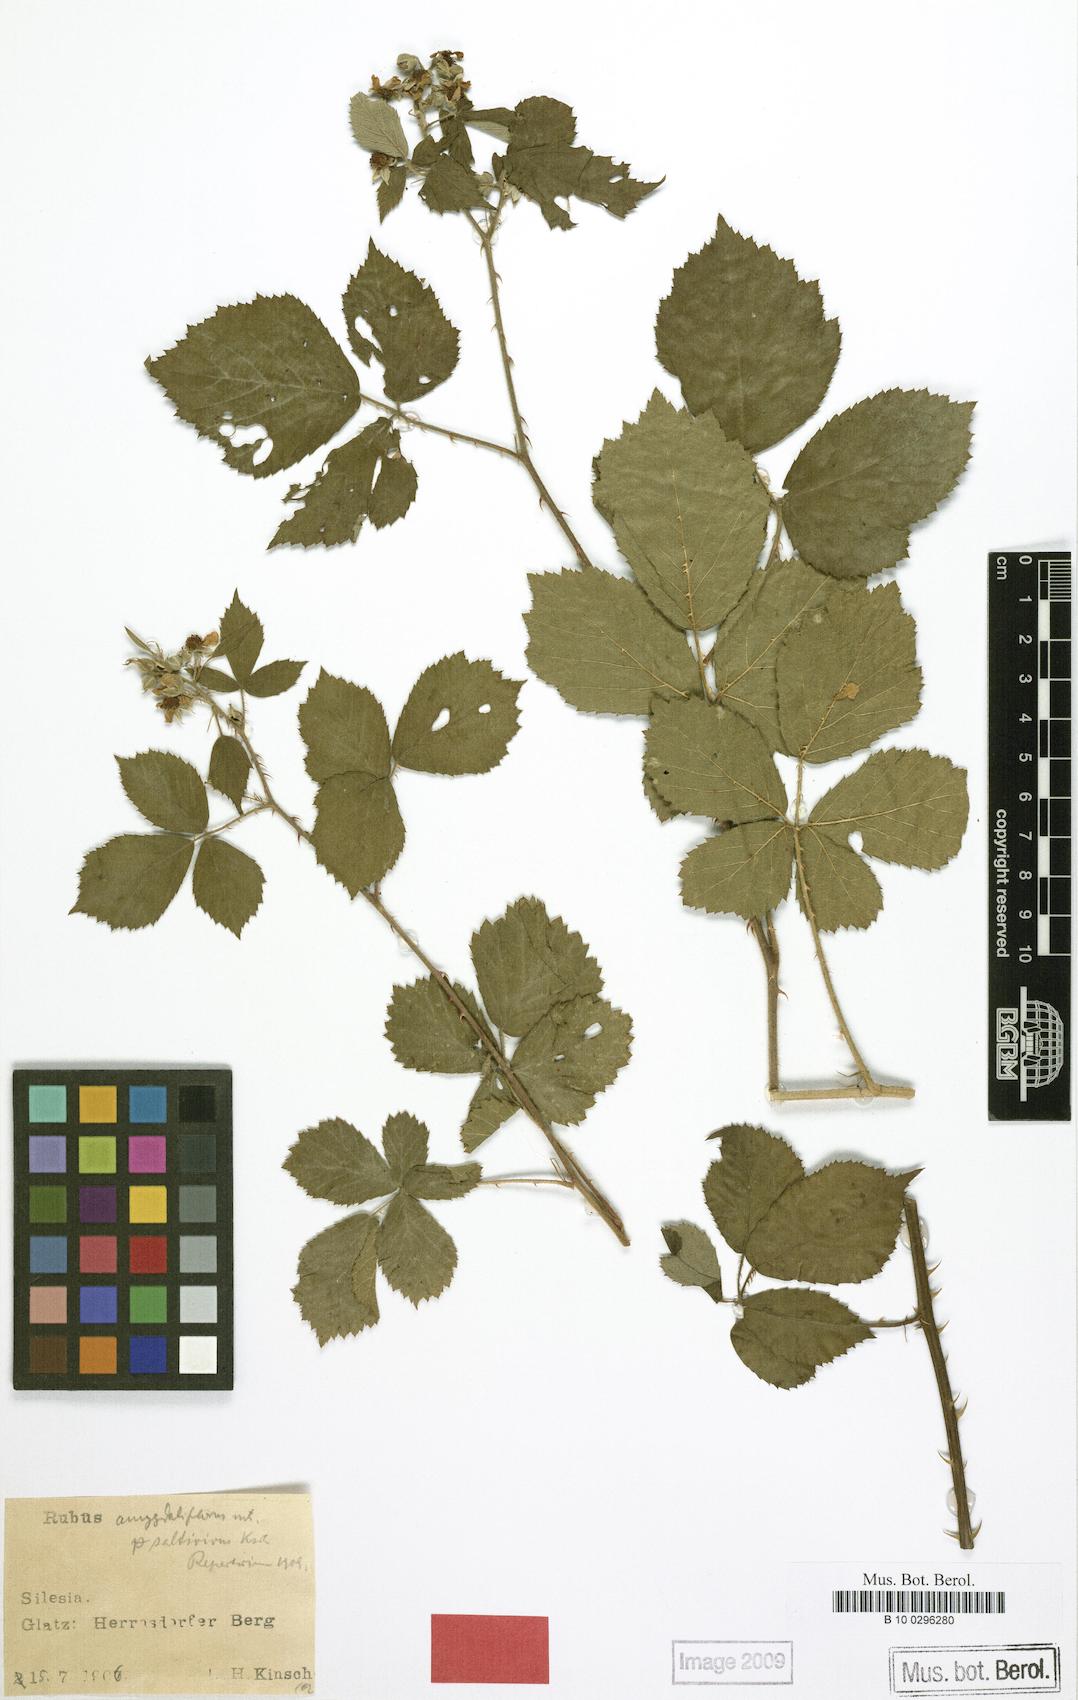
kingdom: Plantae
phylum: Tracheophyta
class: Magnoliopsida
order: Rosales
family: Rosaceae
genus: Rubus
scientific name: Rubus saltivivus
